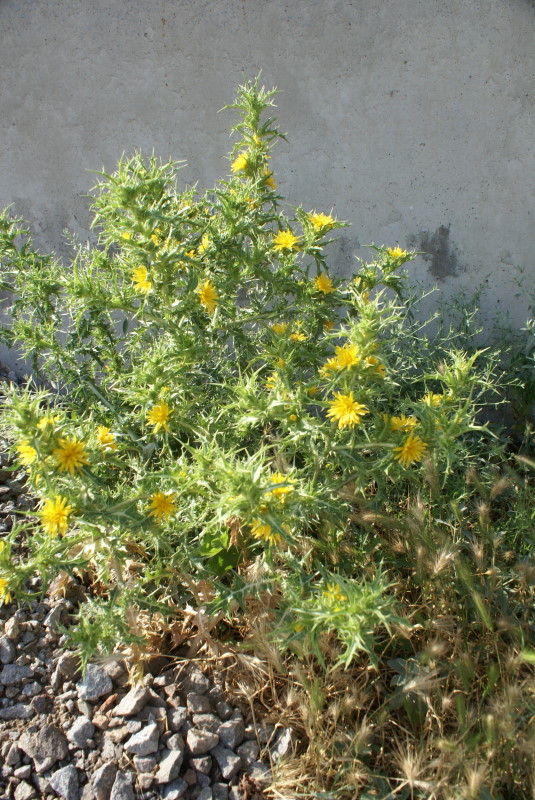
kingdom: Plantae
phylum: Tracheophyta
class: Magnoliopsida
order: Asterales
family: Asteraceae
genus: Carthamus
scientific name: Carthamus lanatus
